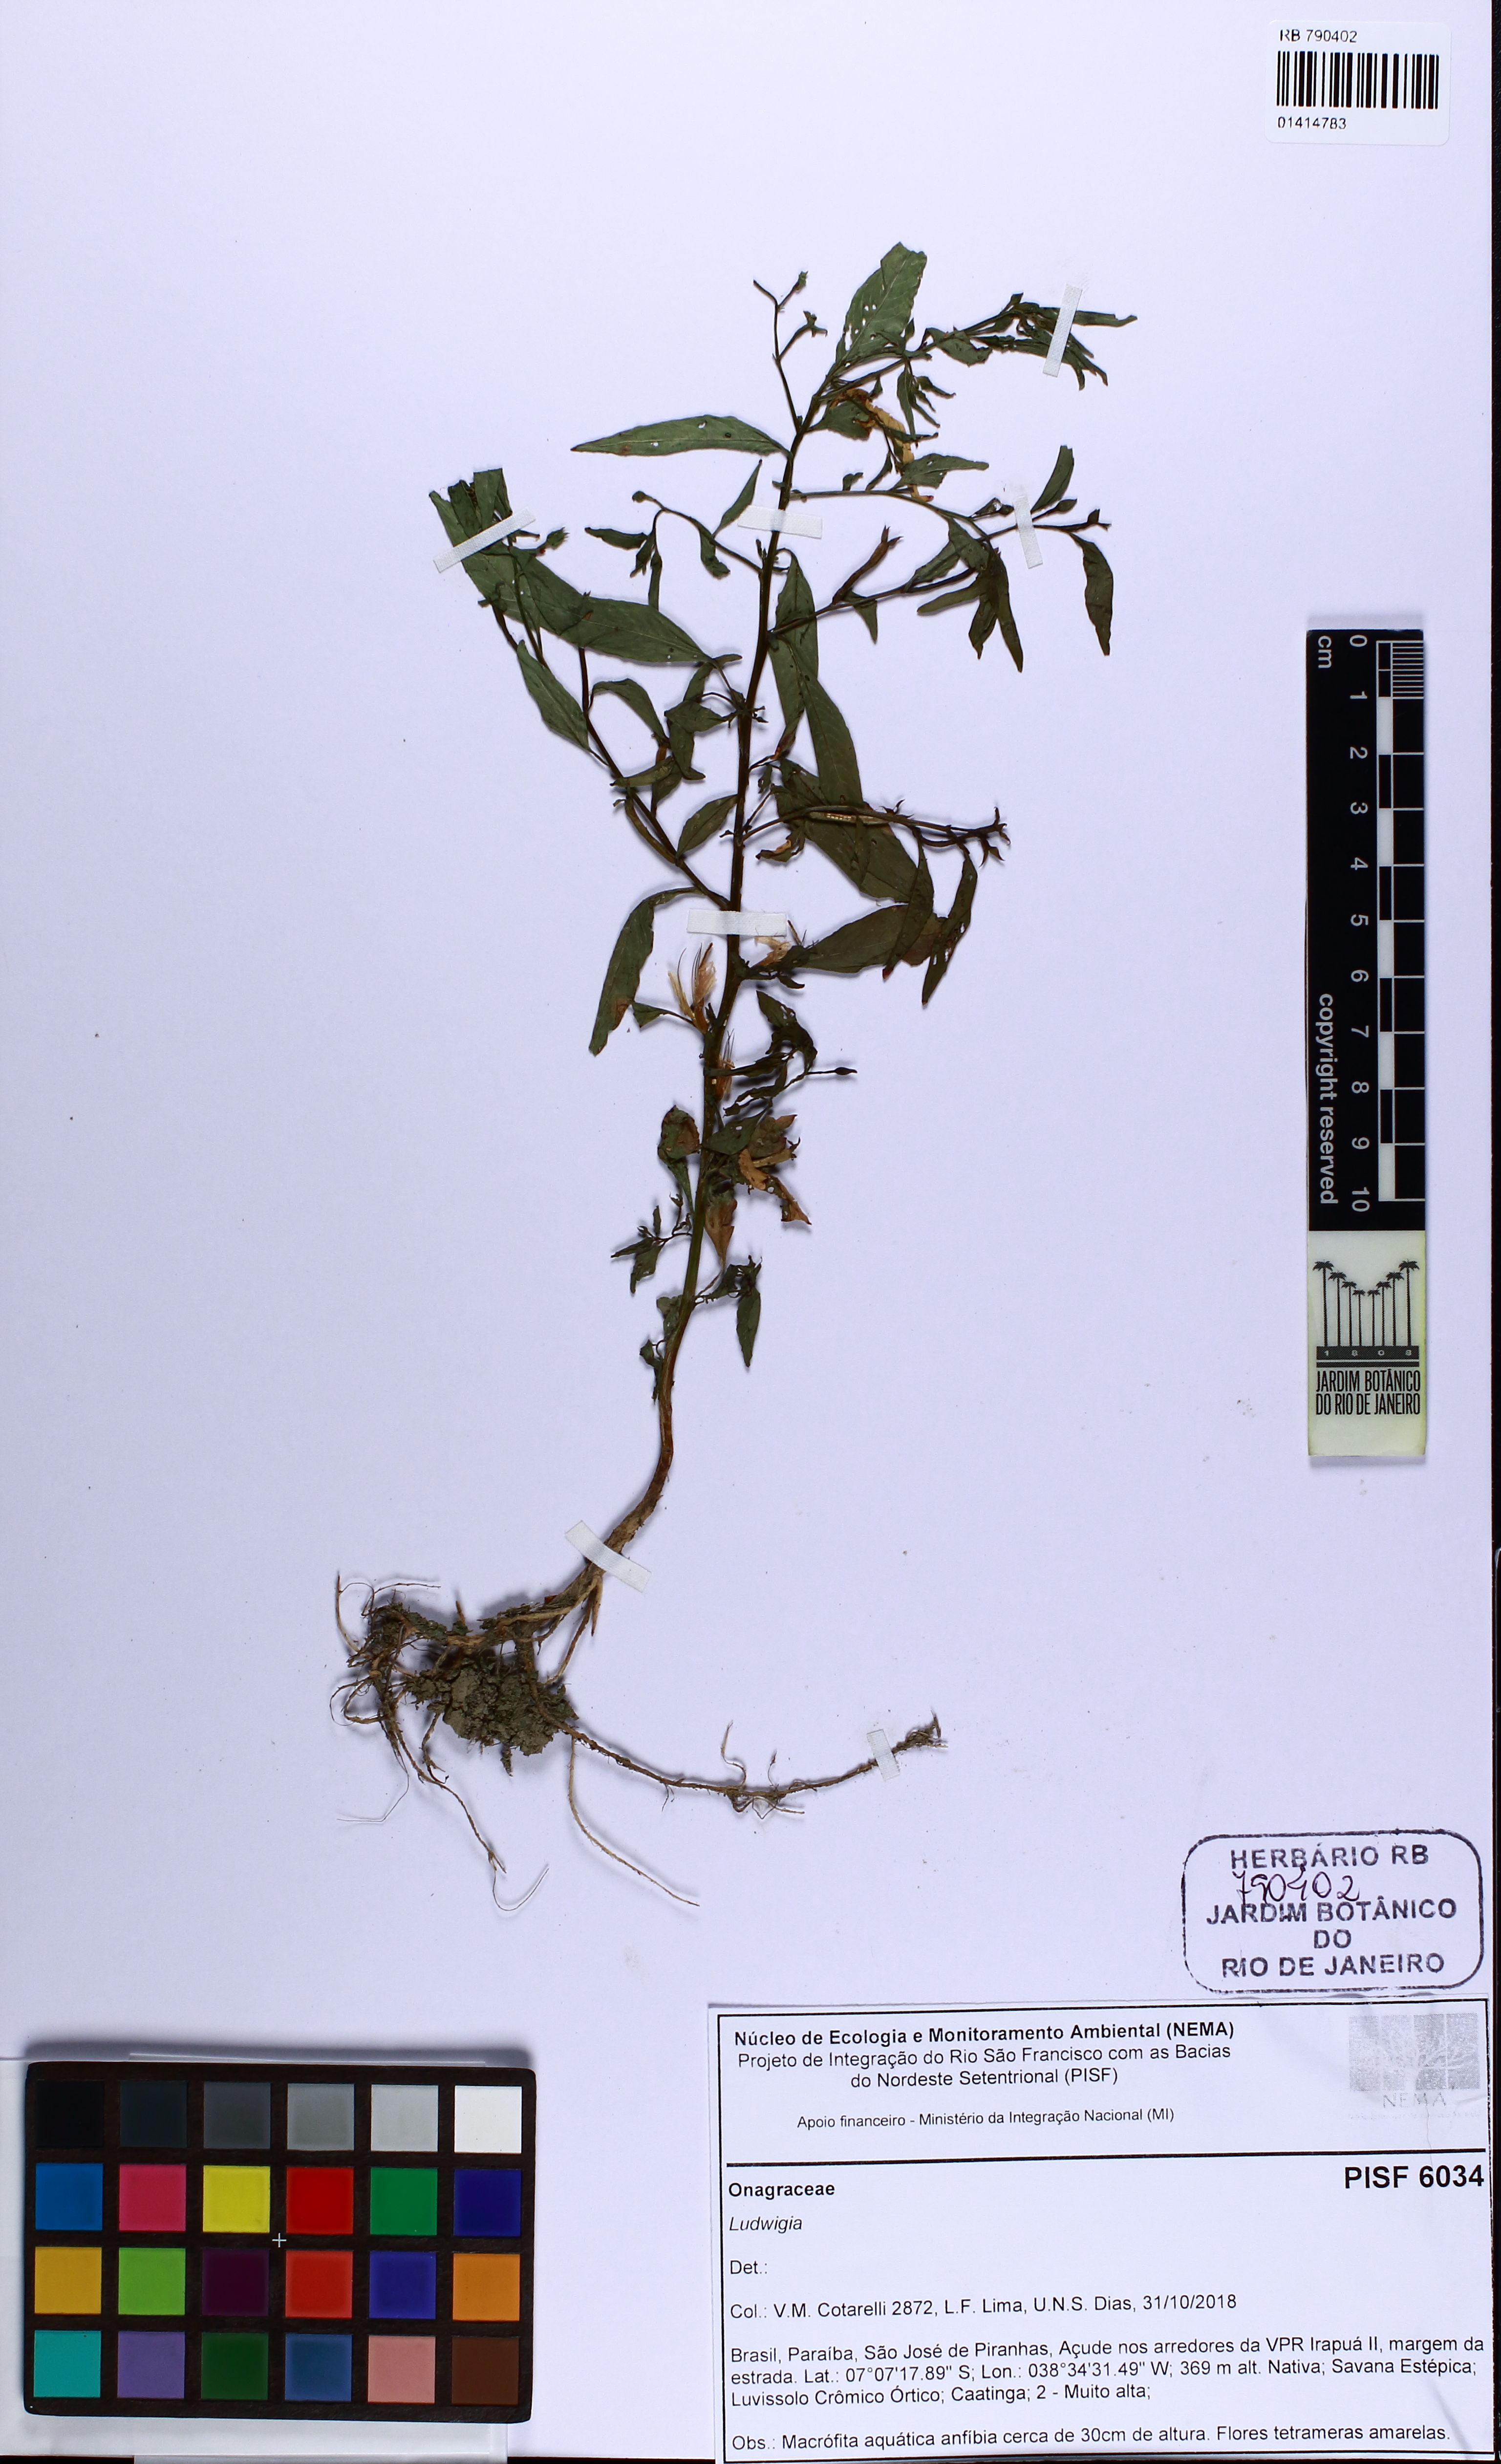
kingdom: Plantae
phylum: Tracheophyta
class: Magnoliopsida
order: Myrtales
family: Onagraceae
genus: Ludwigia
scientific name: Ludwigia
